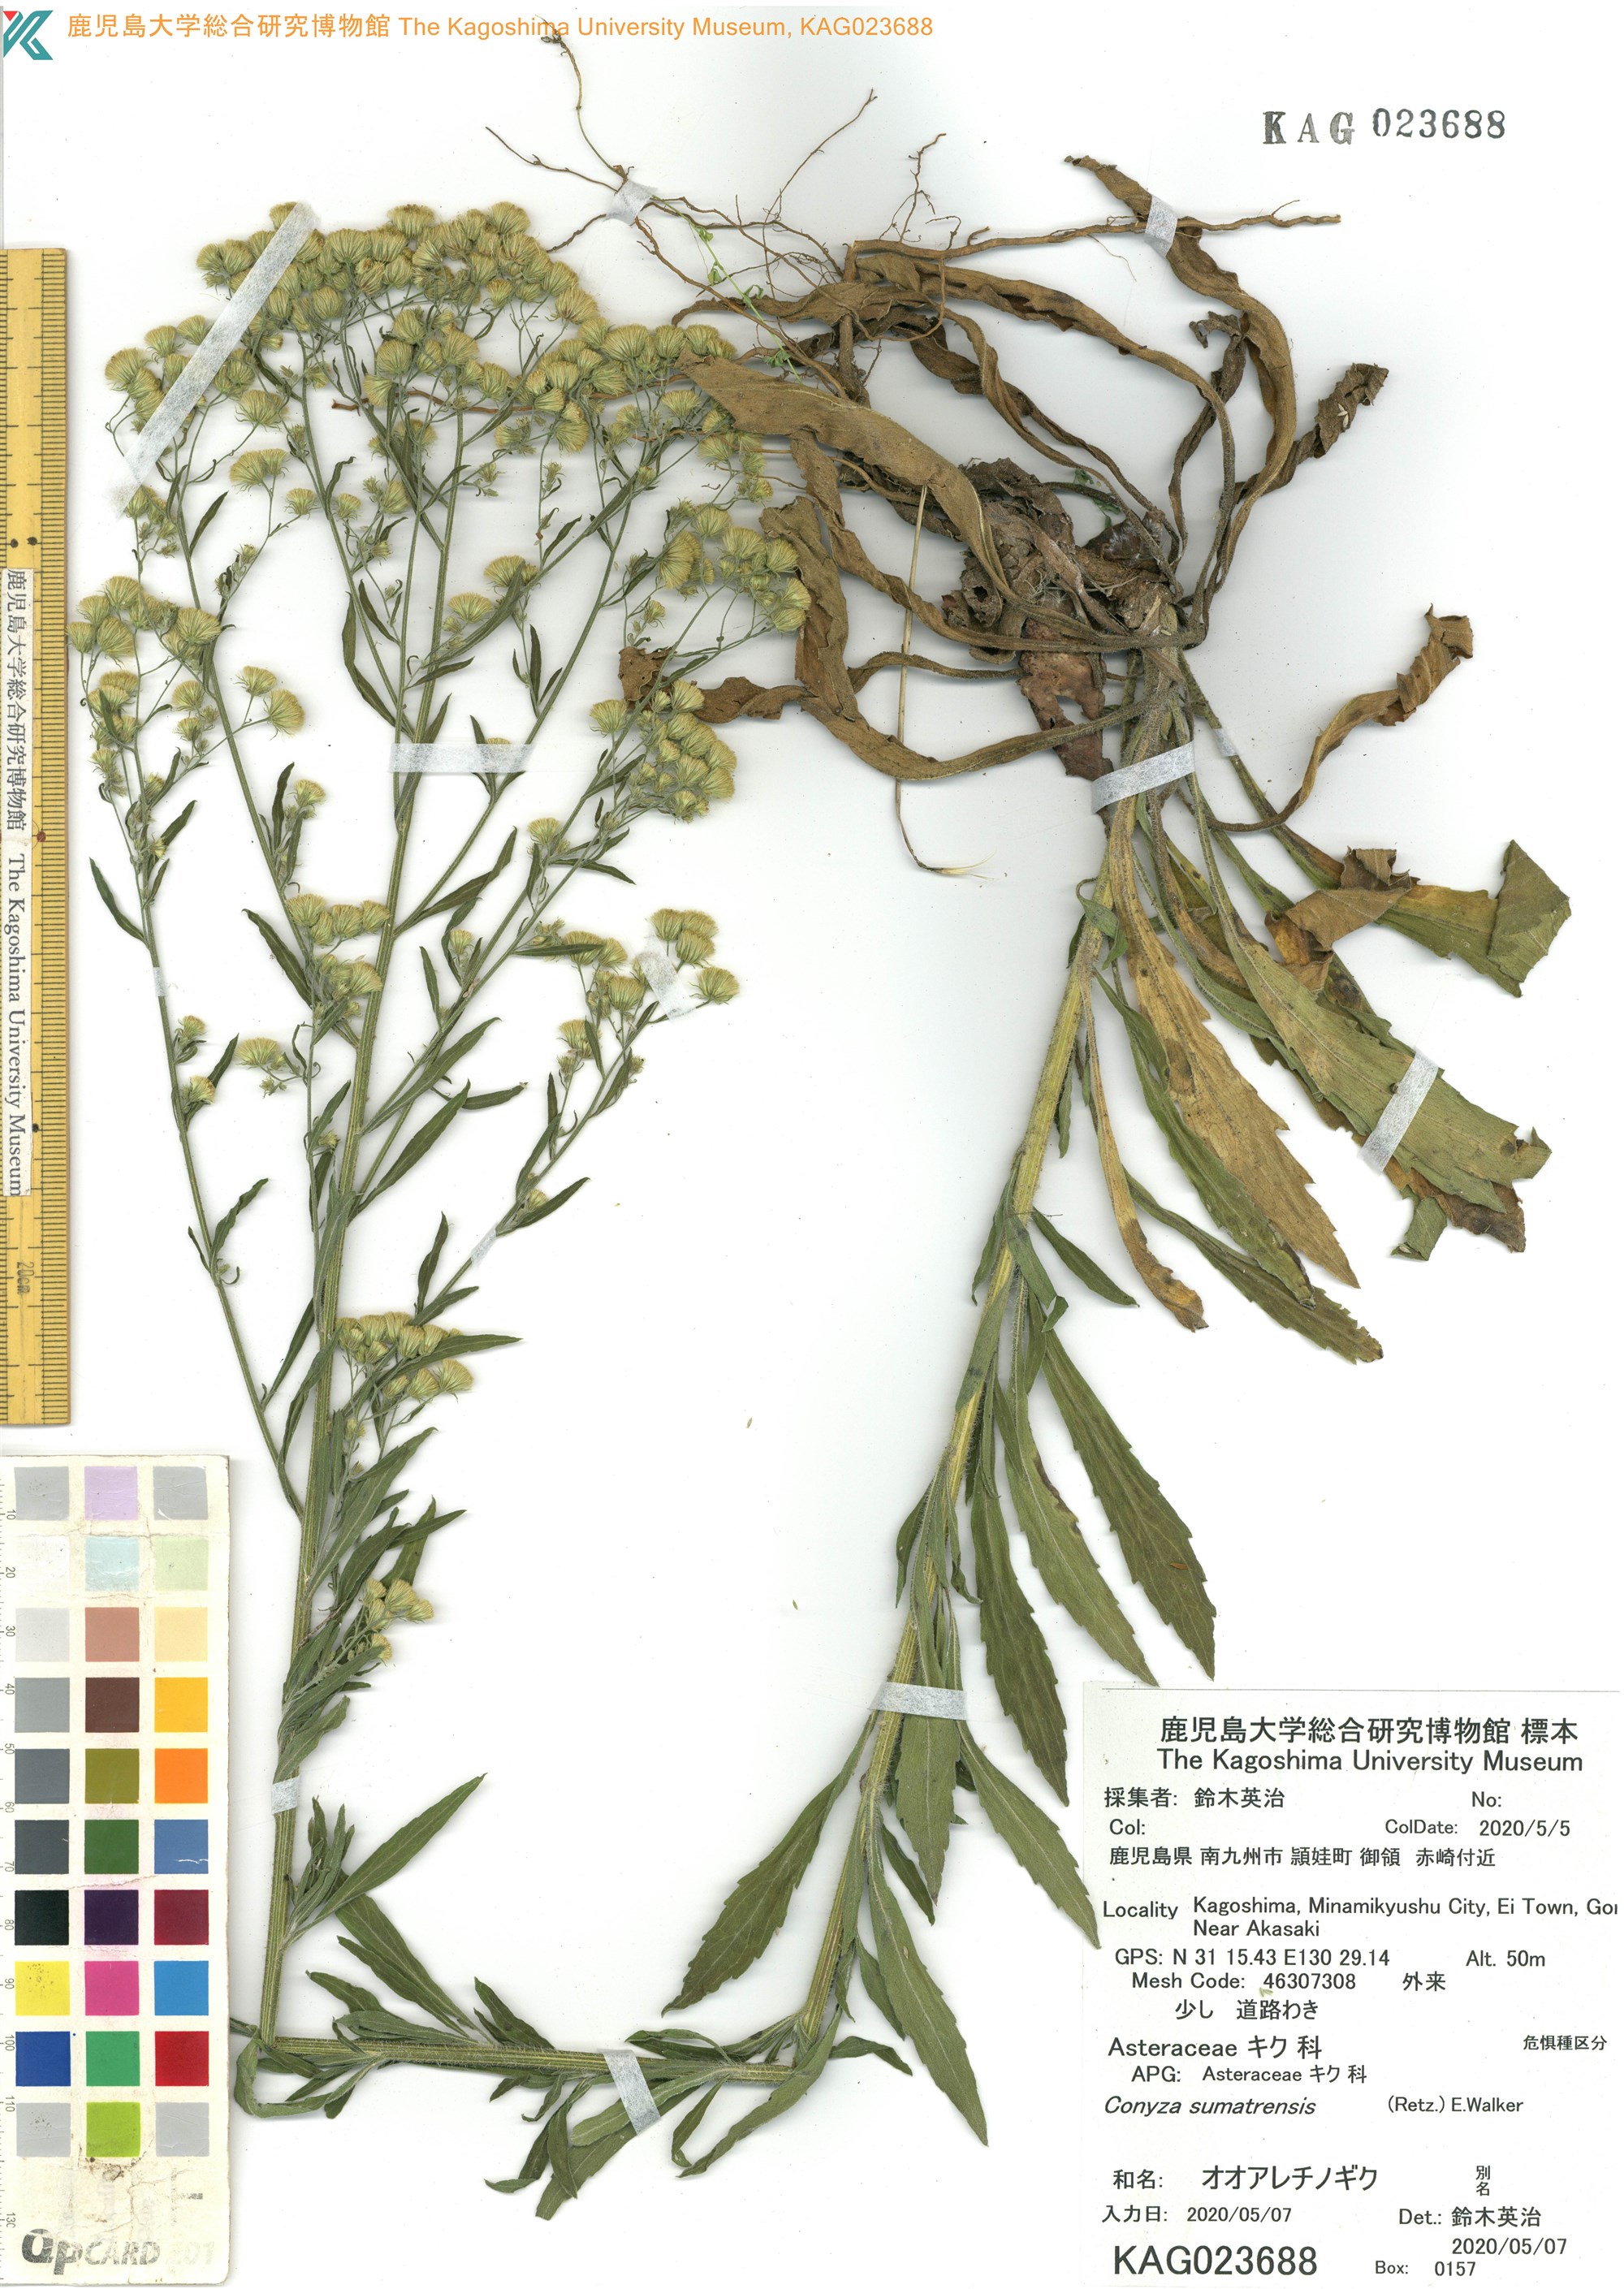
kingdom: Plantae
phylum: Tracheophyta
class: Magnoliopsida
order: Asterales
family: Asteraceae
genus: Conyza
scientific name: Conyza sumatrensis
